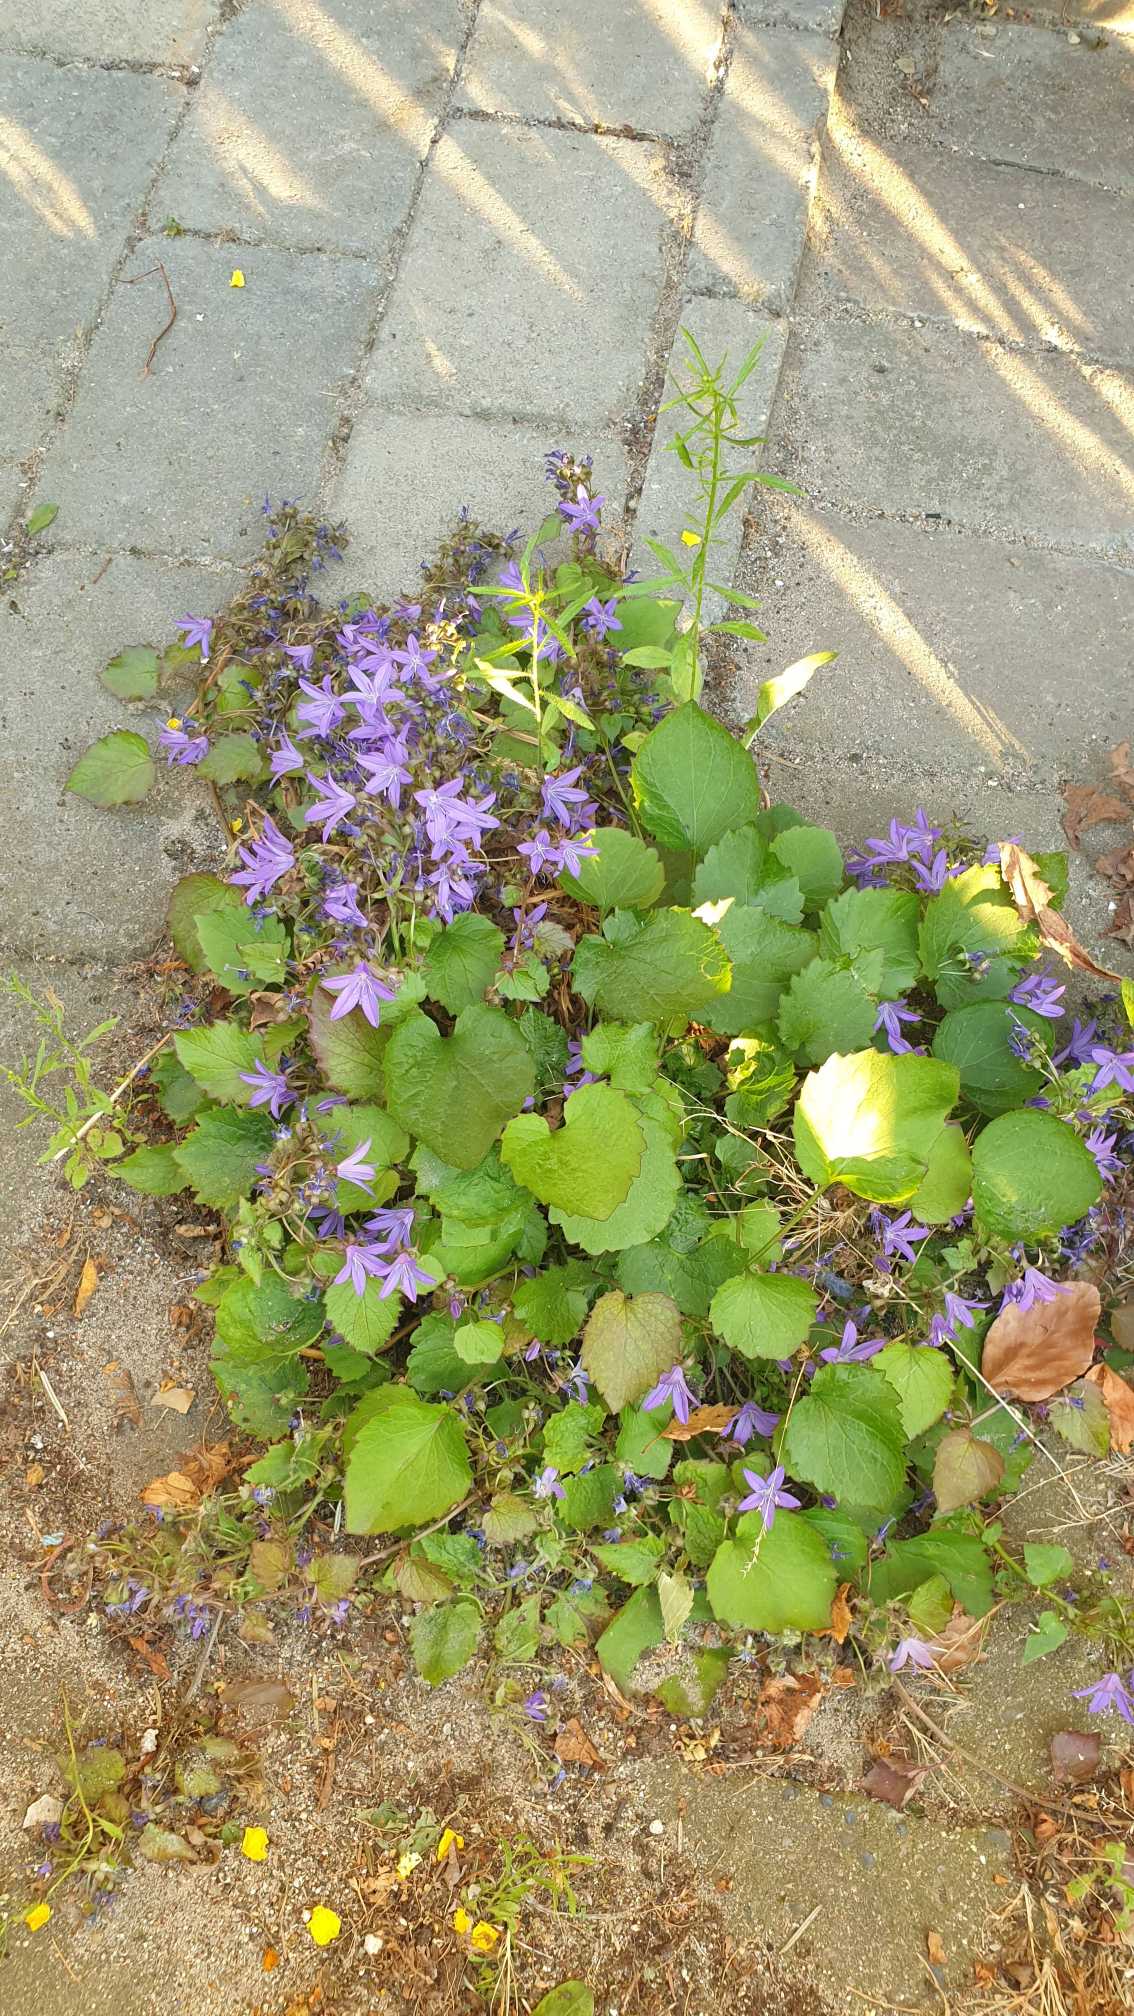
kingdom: Plantae
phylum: Tracheophyta
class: Magnoliopsida
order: Asterales
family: Campanulaceae
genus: Campanula
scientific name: Campanula poscharskyana
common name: Stjerne-klokke
